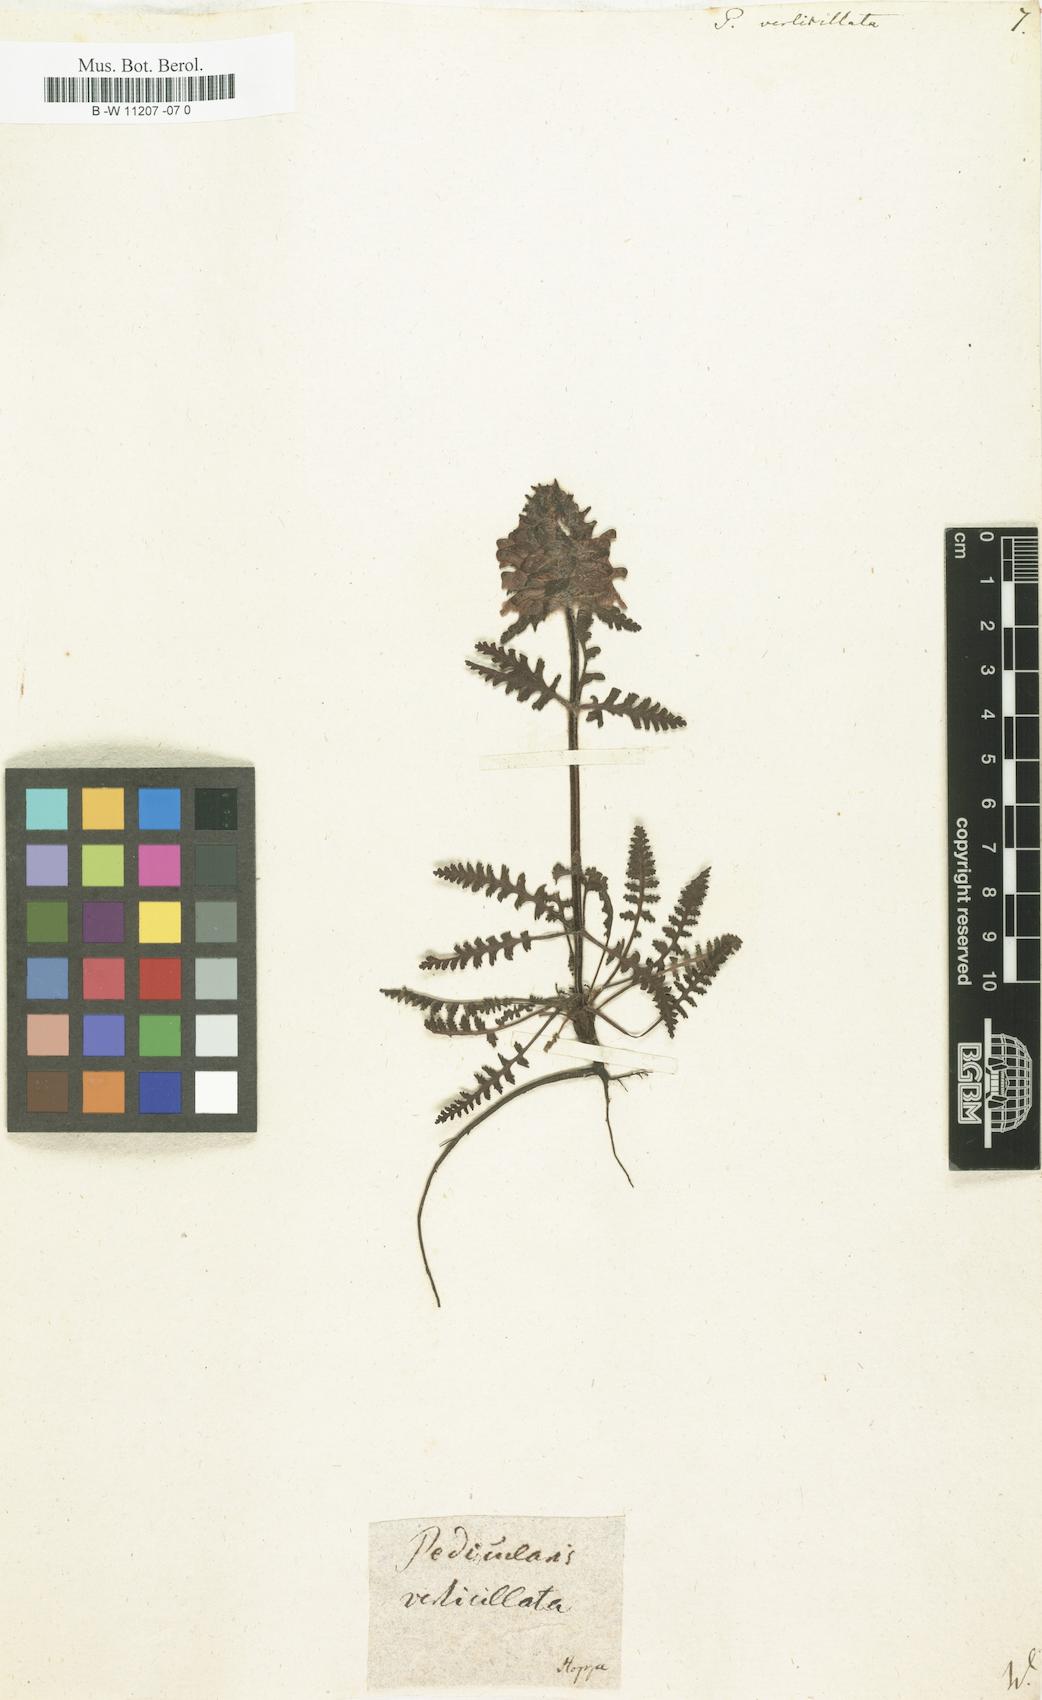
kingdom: Plantae
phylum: Tracheophyta
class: Magnoliopsida
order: Lamiales
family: Orobanchaceae
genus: Pedicularis
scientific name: Pedicularis verticillata
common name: Whorled lousewort
